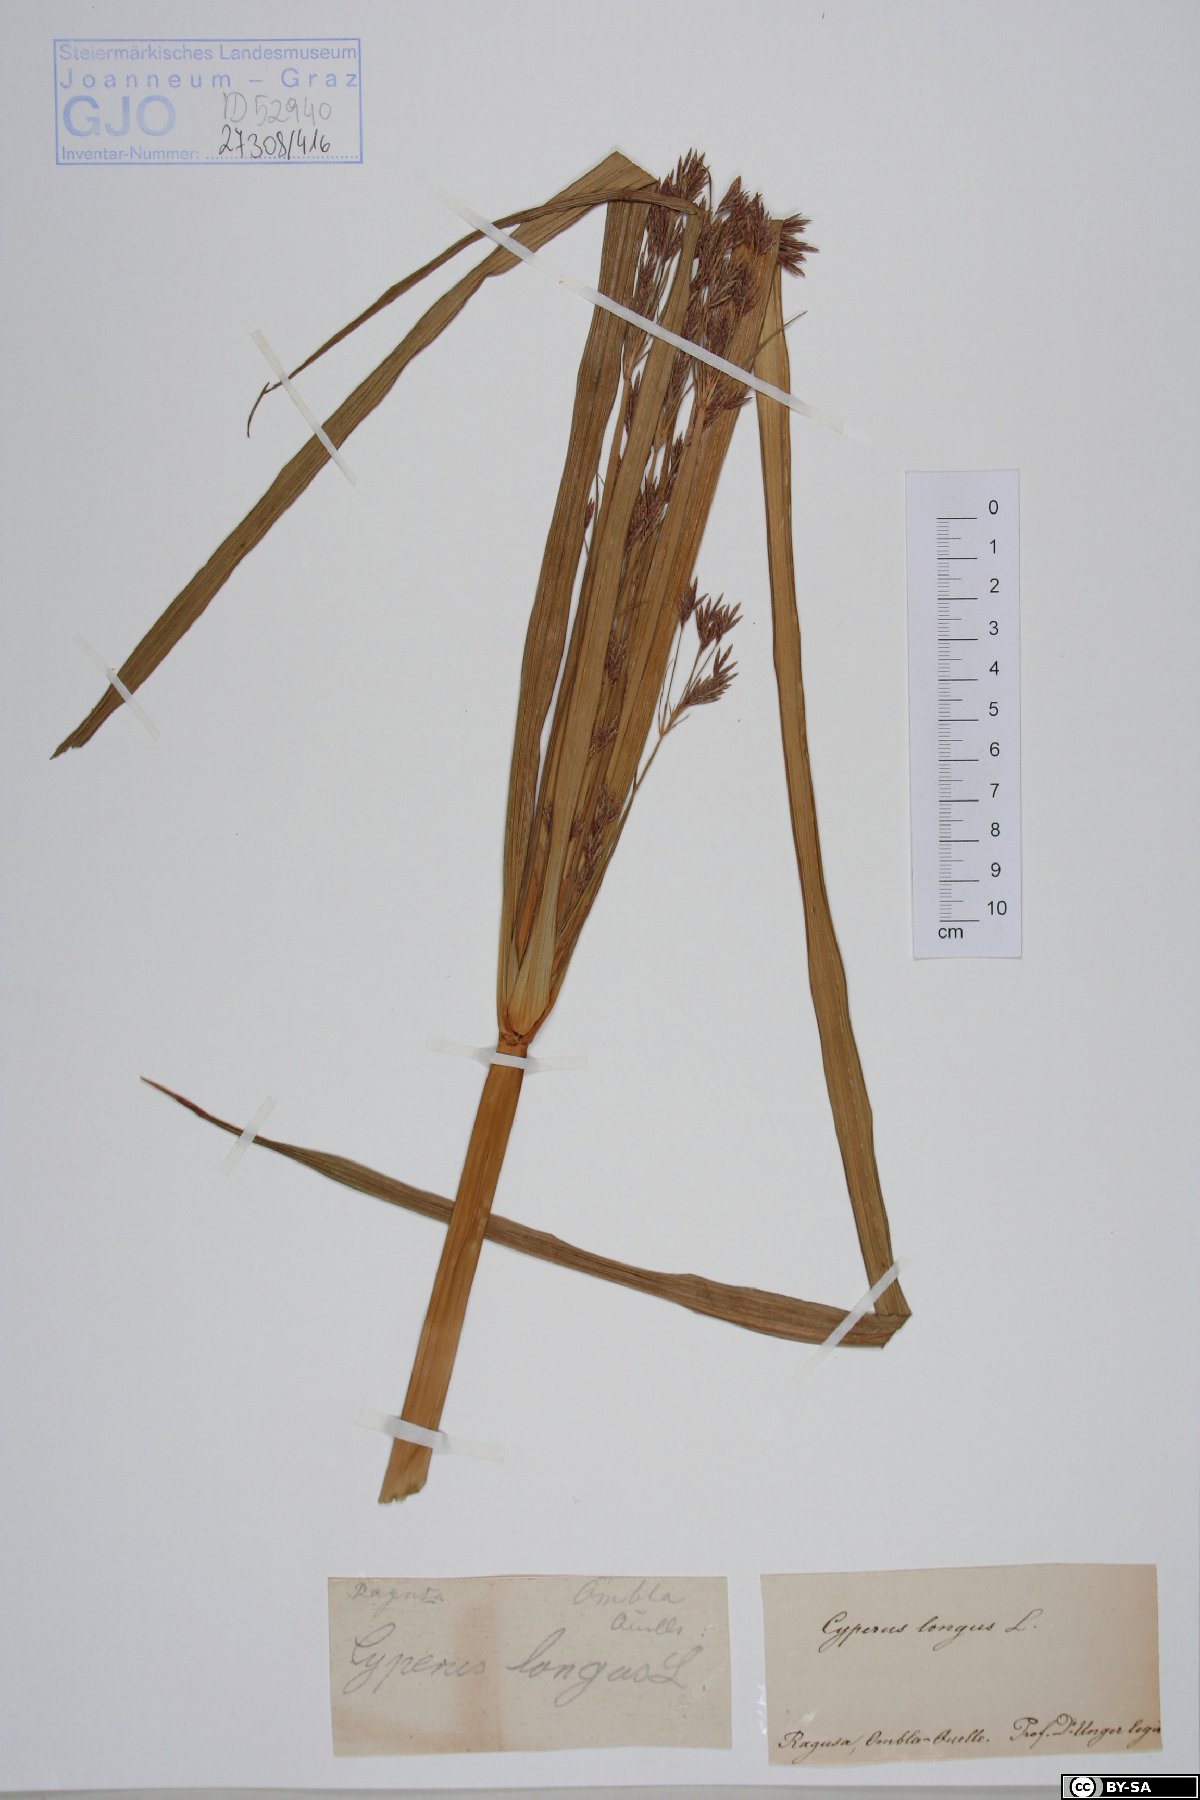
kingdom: Plantae
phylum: Tracheophyta
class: Liliopsida
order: Poales
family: Cyperaceae
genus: Cyperus
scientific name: Cyperus longus
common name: Galingale
